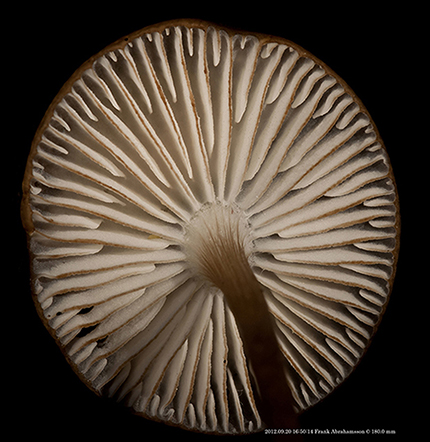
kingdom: Fungi
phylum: Basidiomycota
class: Agaricomycetes
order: Agaricales
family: Physalacriaceae
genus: Hymenopellis
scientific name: Hymenopellis radicata
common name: almindelig pælerodshat
